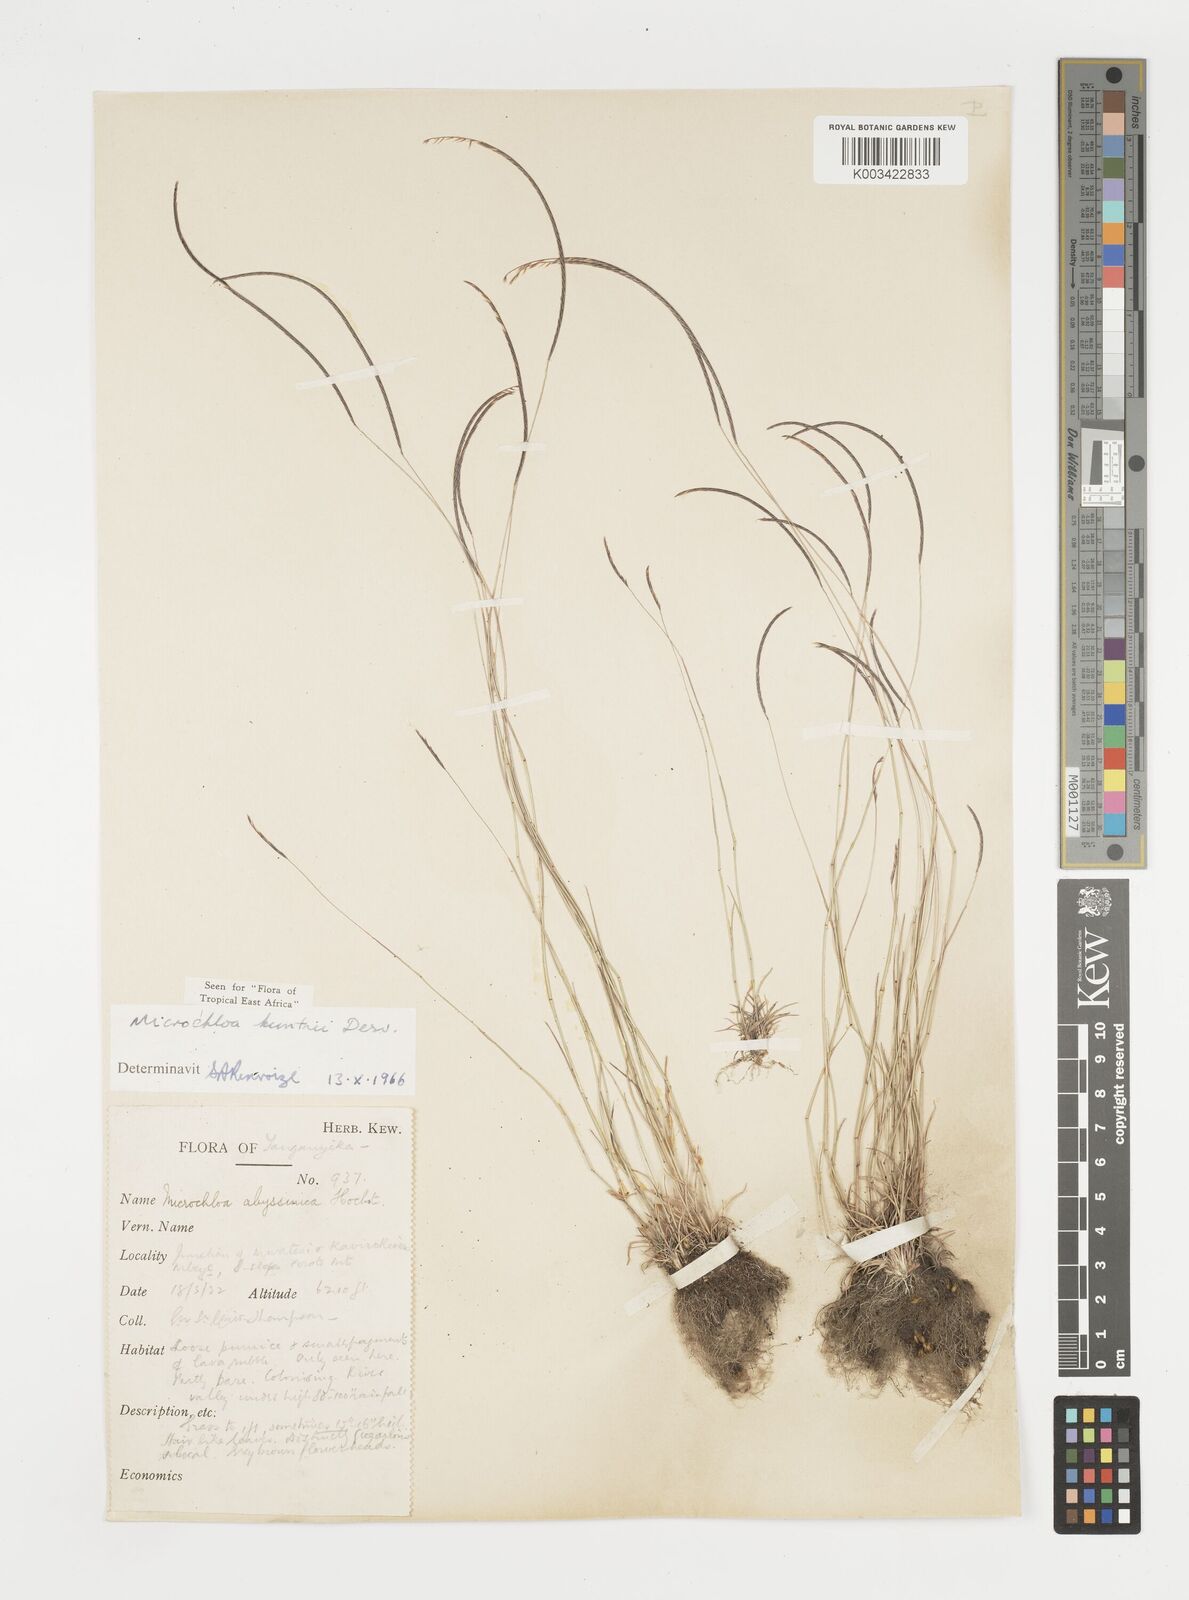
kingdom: Plantae
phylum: Tracheophyta
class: Liliopsida
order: Poales
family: Poaceae
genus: Microchloa
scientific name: Microchloa kunthii
